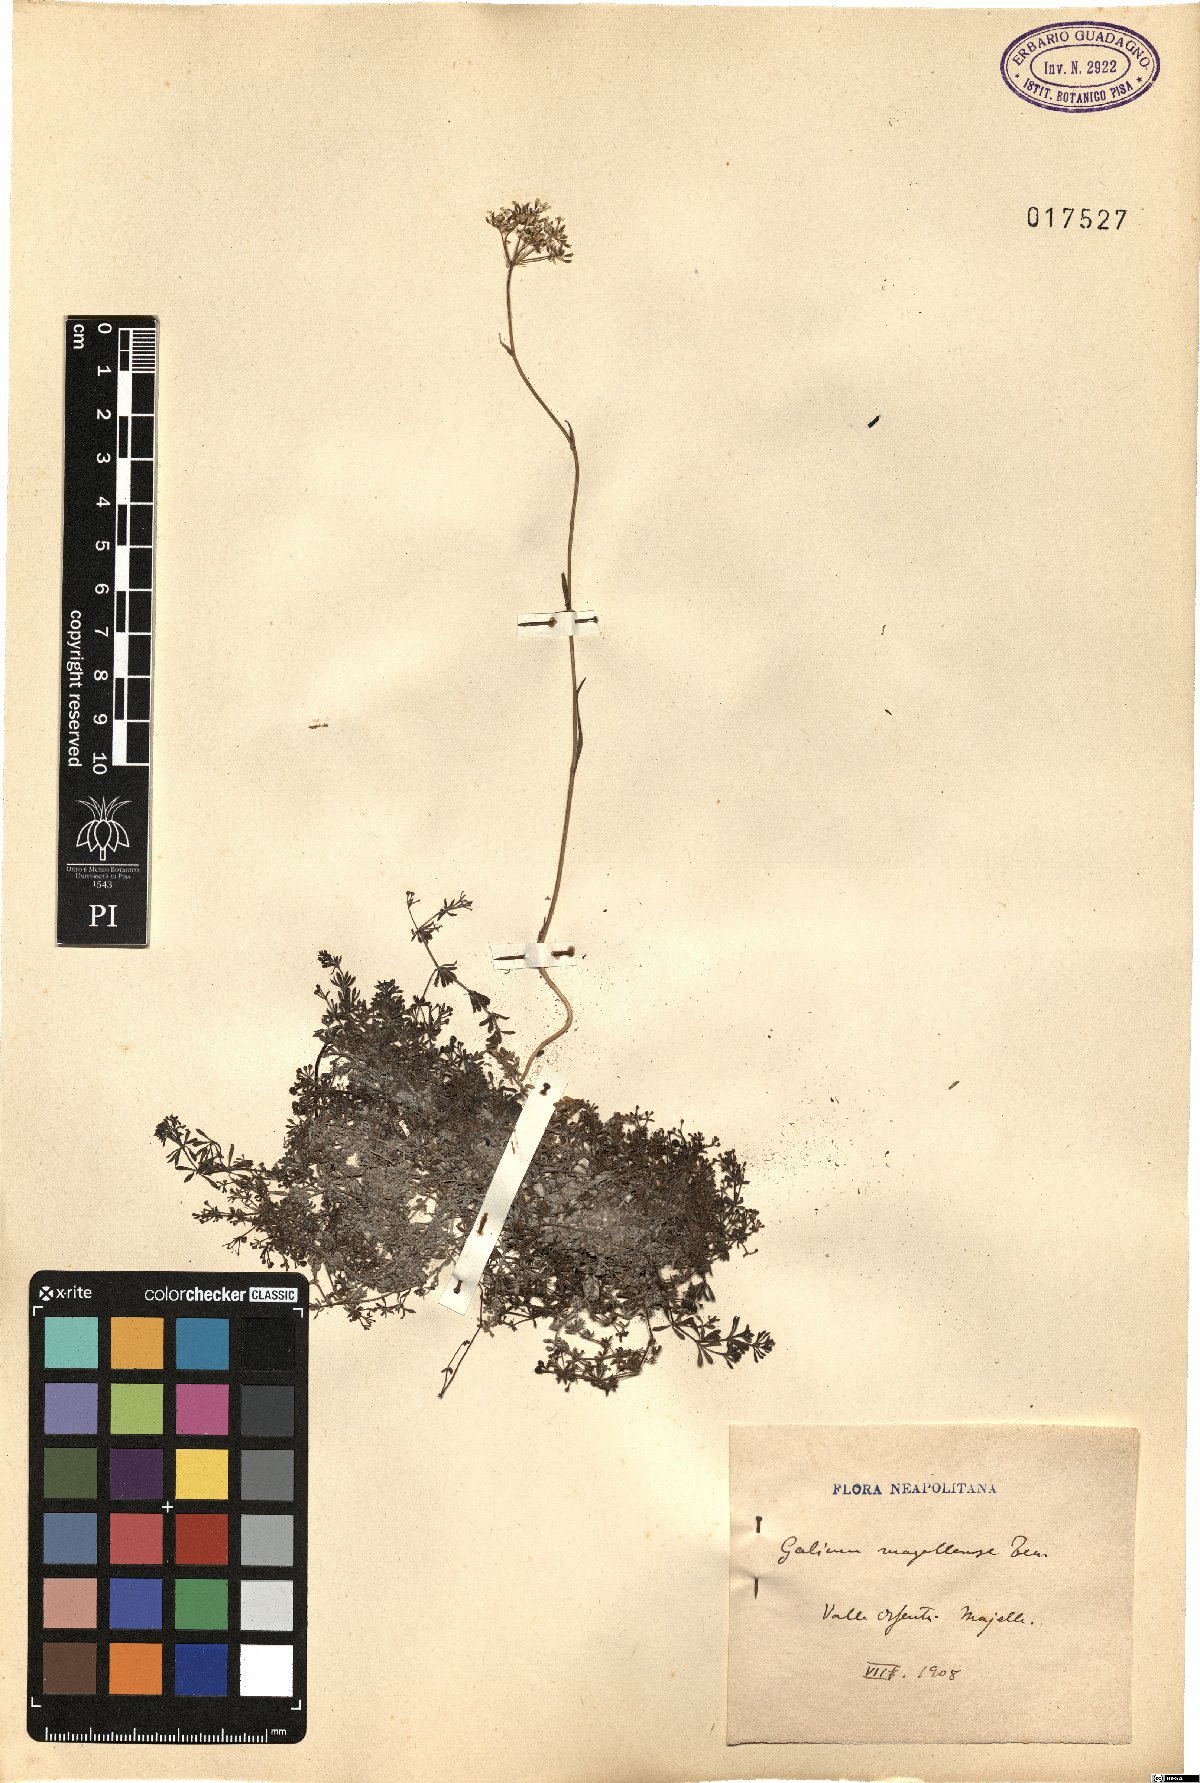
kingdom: Plantae
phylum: Tracheophyta
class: Magnoliopsida
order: Gentianales
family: Rubiaceae
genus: Galium
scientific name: Galium magellense
